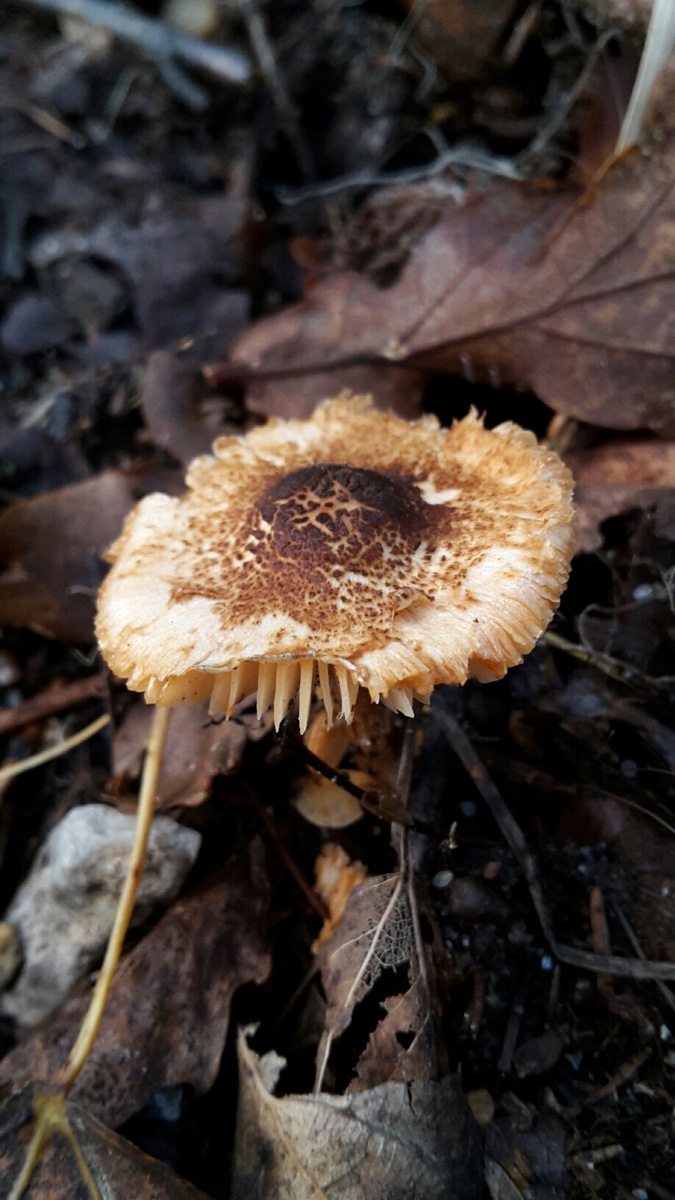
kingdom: Fungi
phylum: Basidiomycota
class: Agaricomycetes
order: Agaricales
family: Agaricaceae
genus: Lepiota
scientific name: Lepiota castanea
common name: kastaniebrun parasolhat
